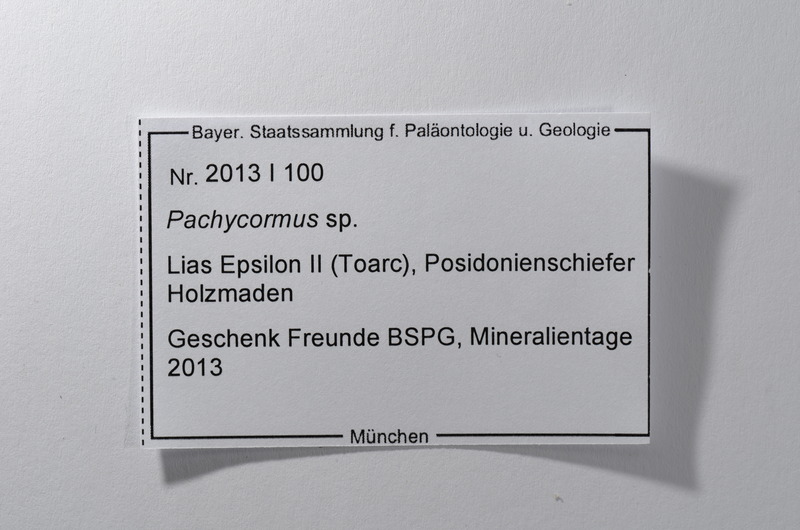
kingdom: Animalia
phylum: Chordata
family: Pachycormidae
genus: Pachycormus
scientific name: Pachycormus
